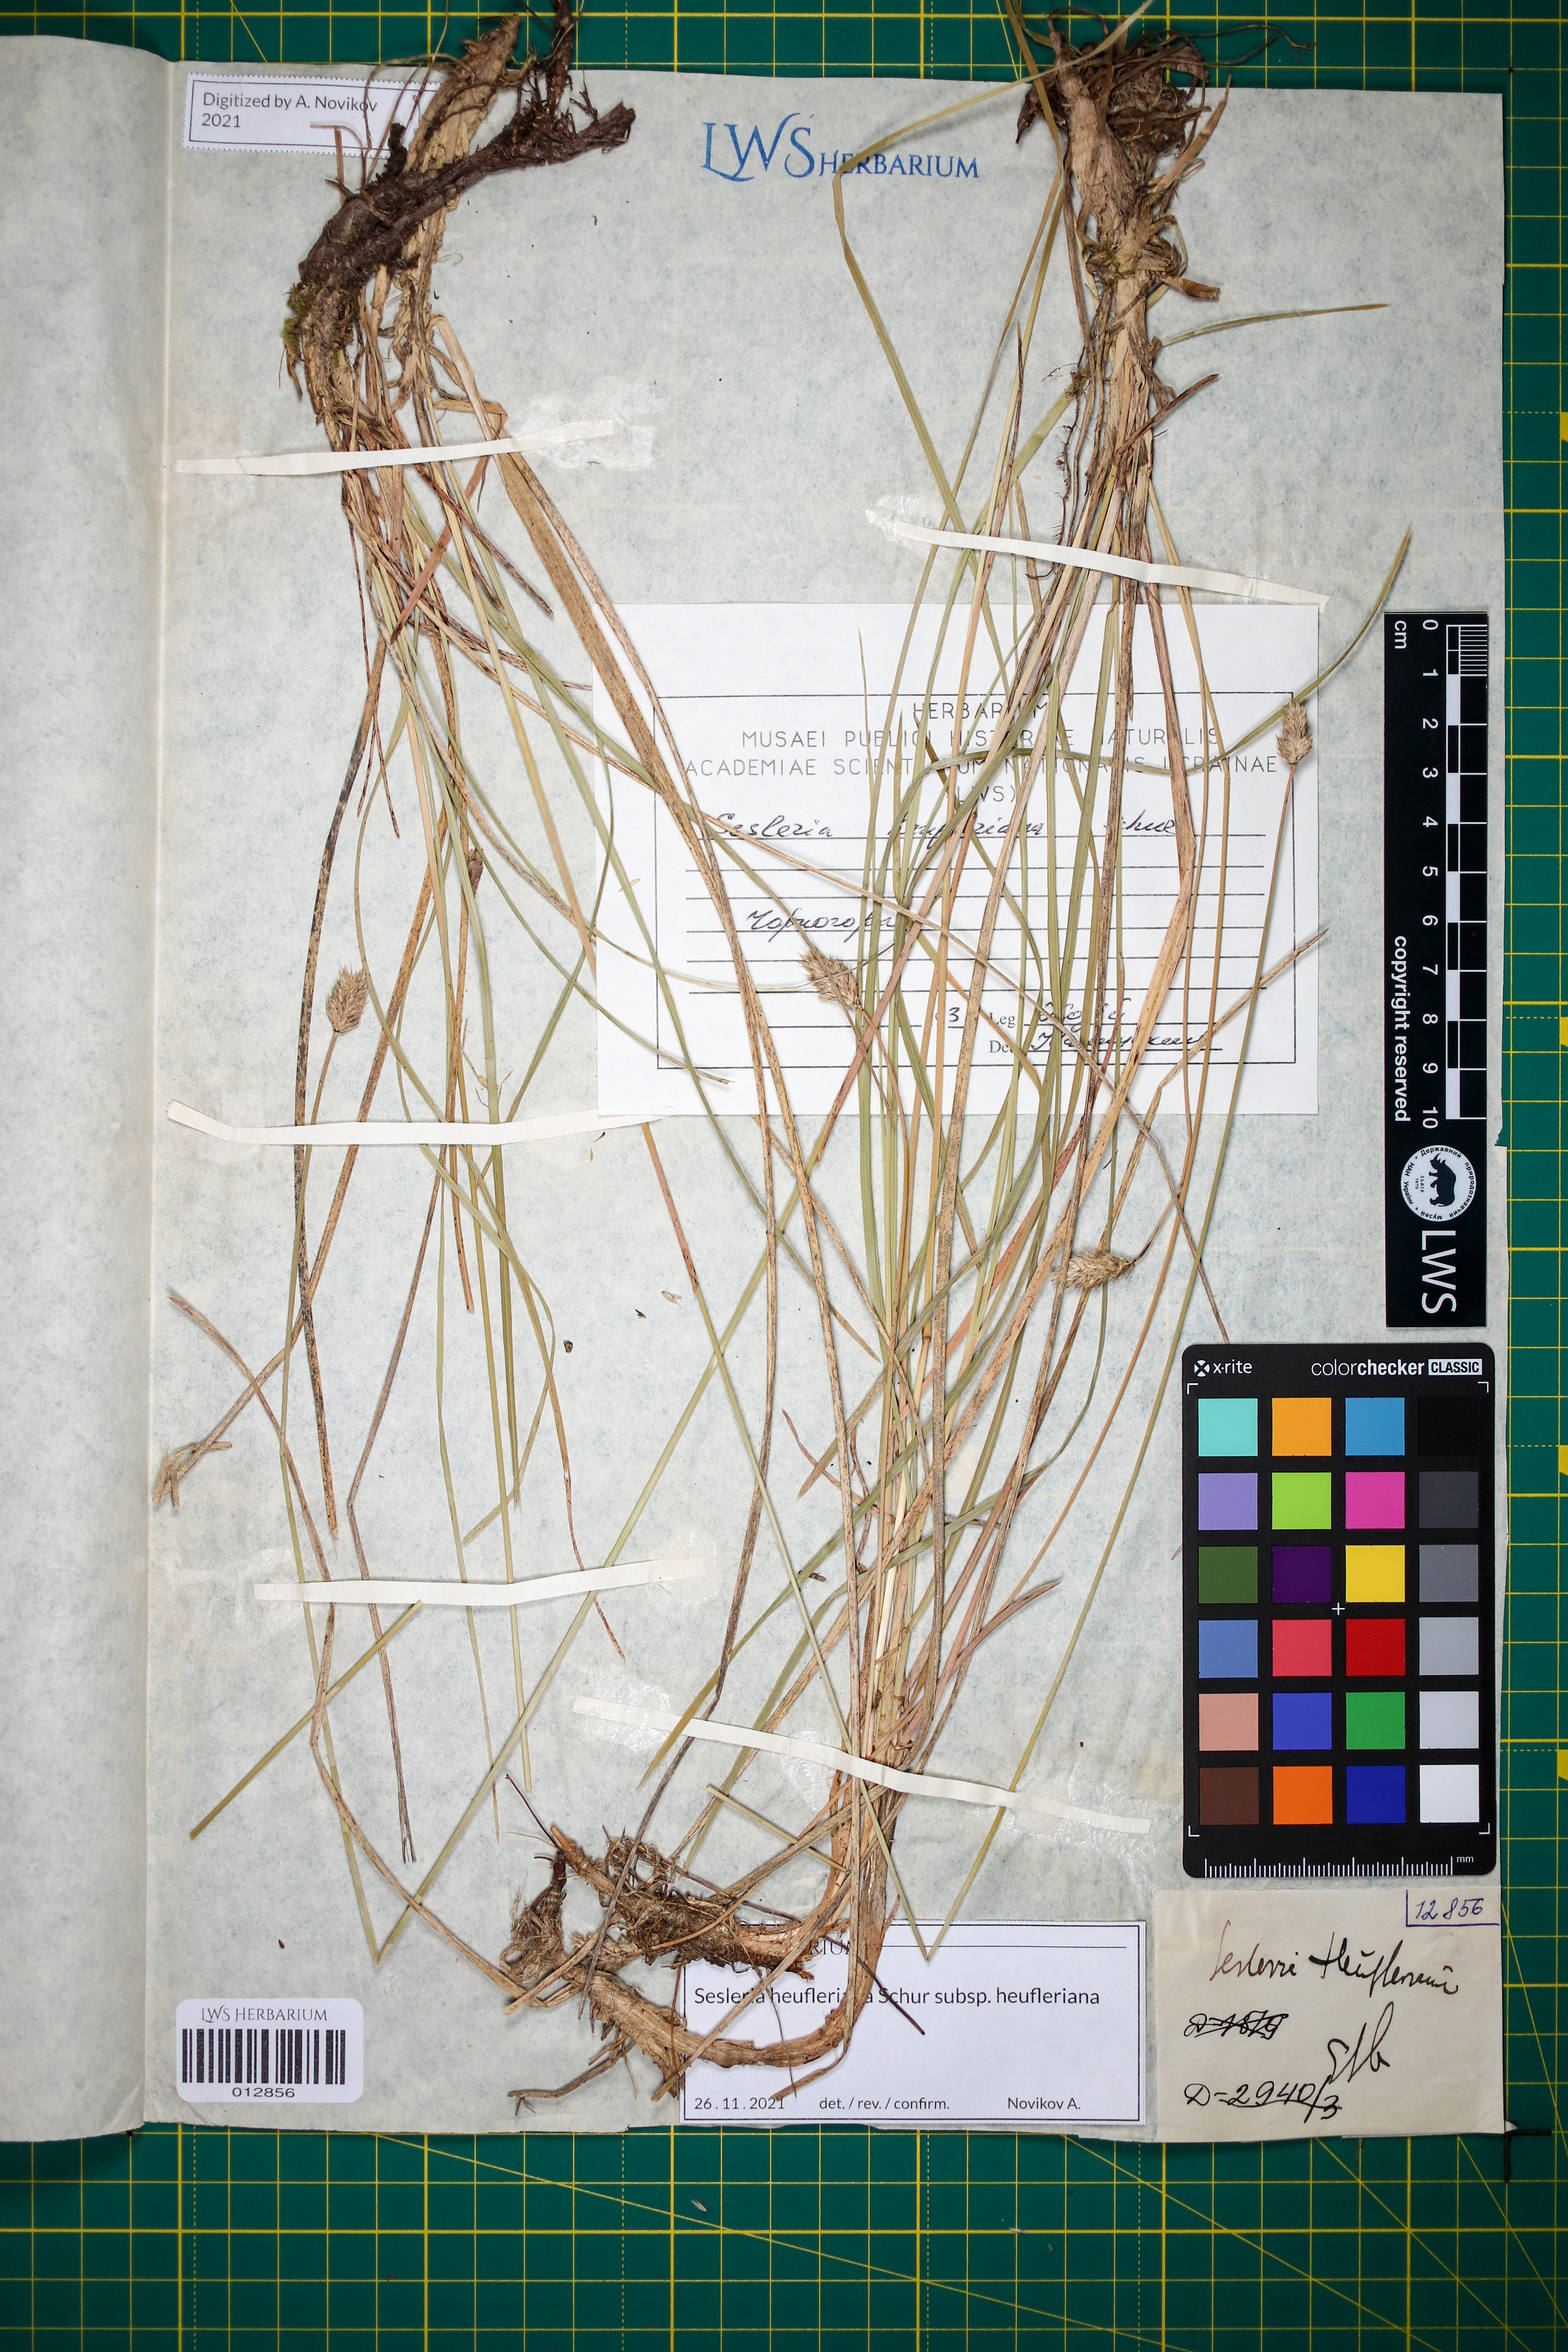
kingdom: Plantae
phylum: Tracheophyta
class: Liliopsida
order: Poales
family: Poaceae
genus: Sesleria
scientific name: Sesleria heufleriana
